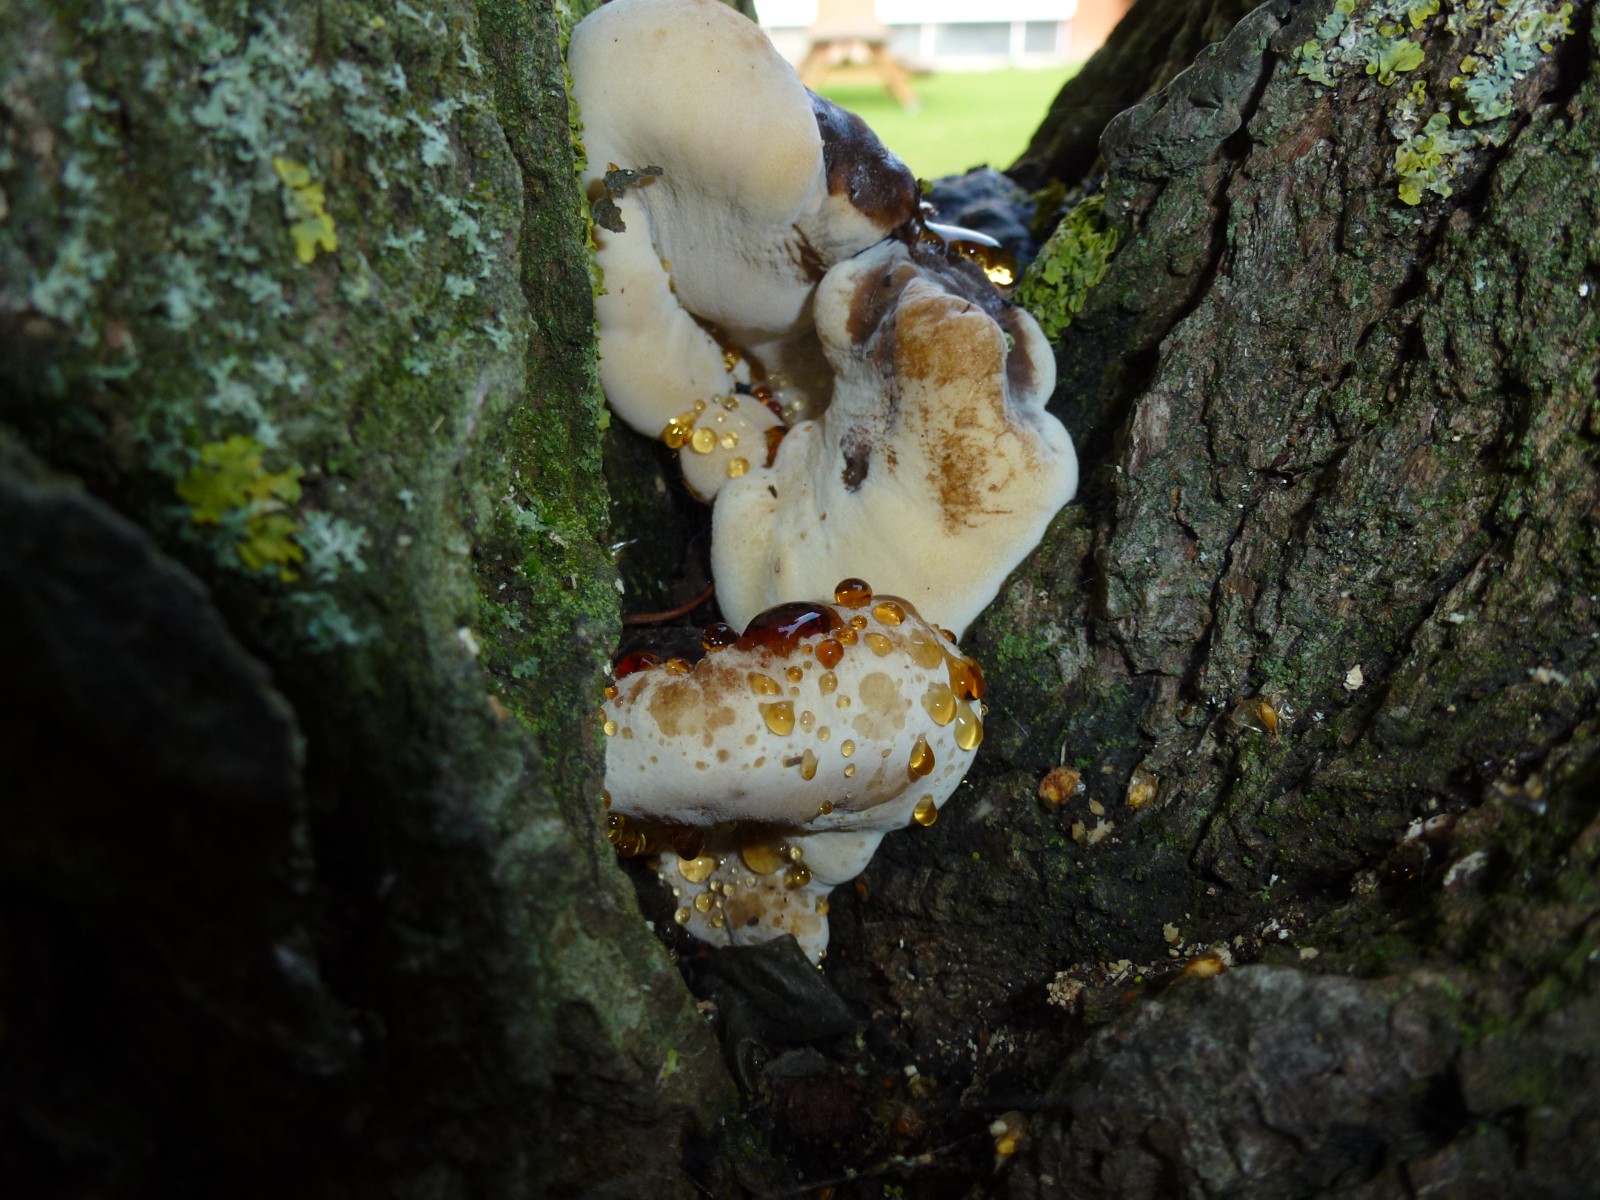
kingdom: Fungi
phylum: Basidiomycota
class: Agaricomycetes
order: Polyporales
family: Ischnodermataceae
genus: Ischnoderma
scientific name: Ischnoderma resinosum
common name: løv-tjæreporesvamp
